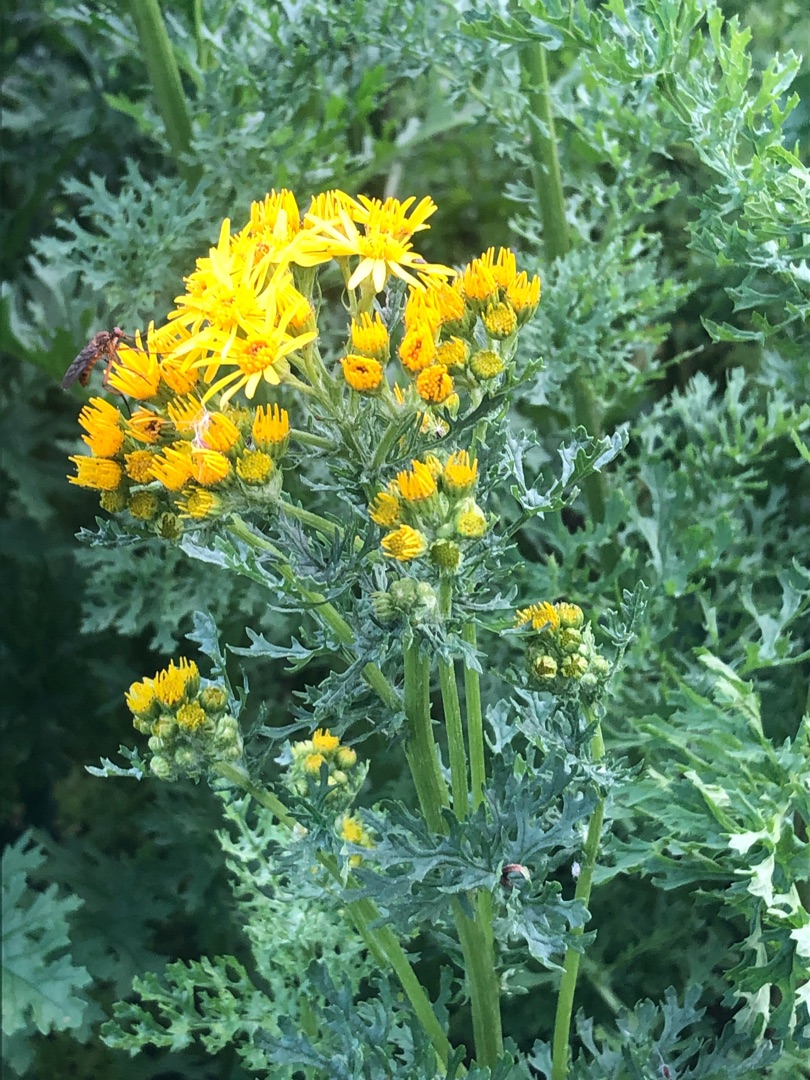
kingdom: Plantae
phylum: Tracheophyta
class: Magnoliopsida
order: Asterales
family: Asteraceae
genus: Jacobaea
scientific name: Jacobaea vulgaris
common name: Eng-brandbæger
